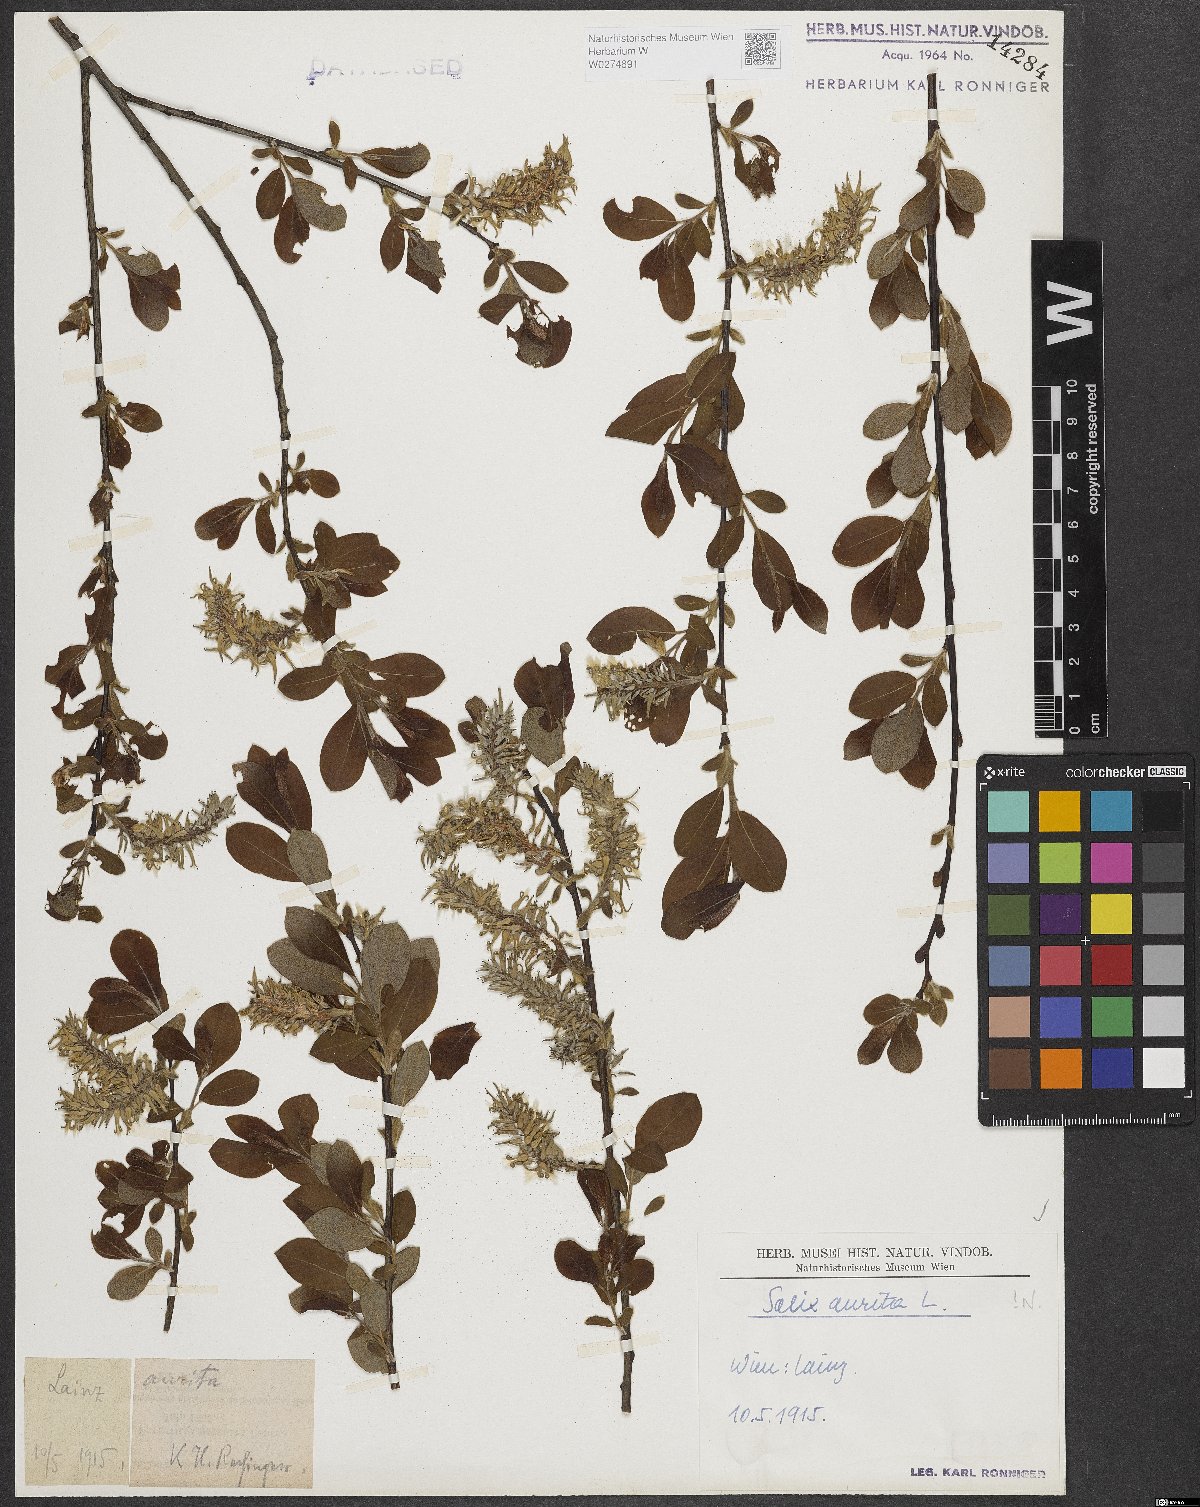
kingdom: Plantae
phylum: Tracheophyta
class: Magnoliopsida
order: Malpighiales
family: Salicaceae
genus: Salix
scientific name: Salix aurita
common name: Eared willow
